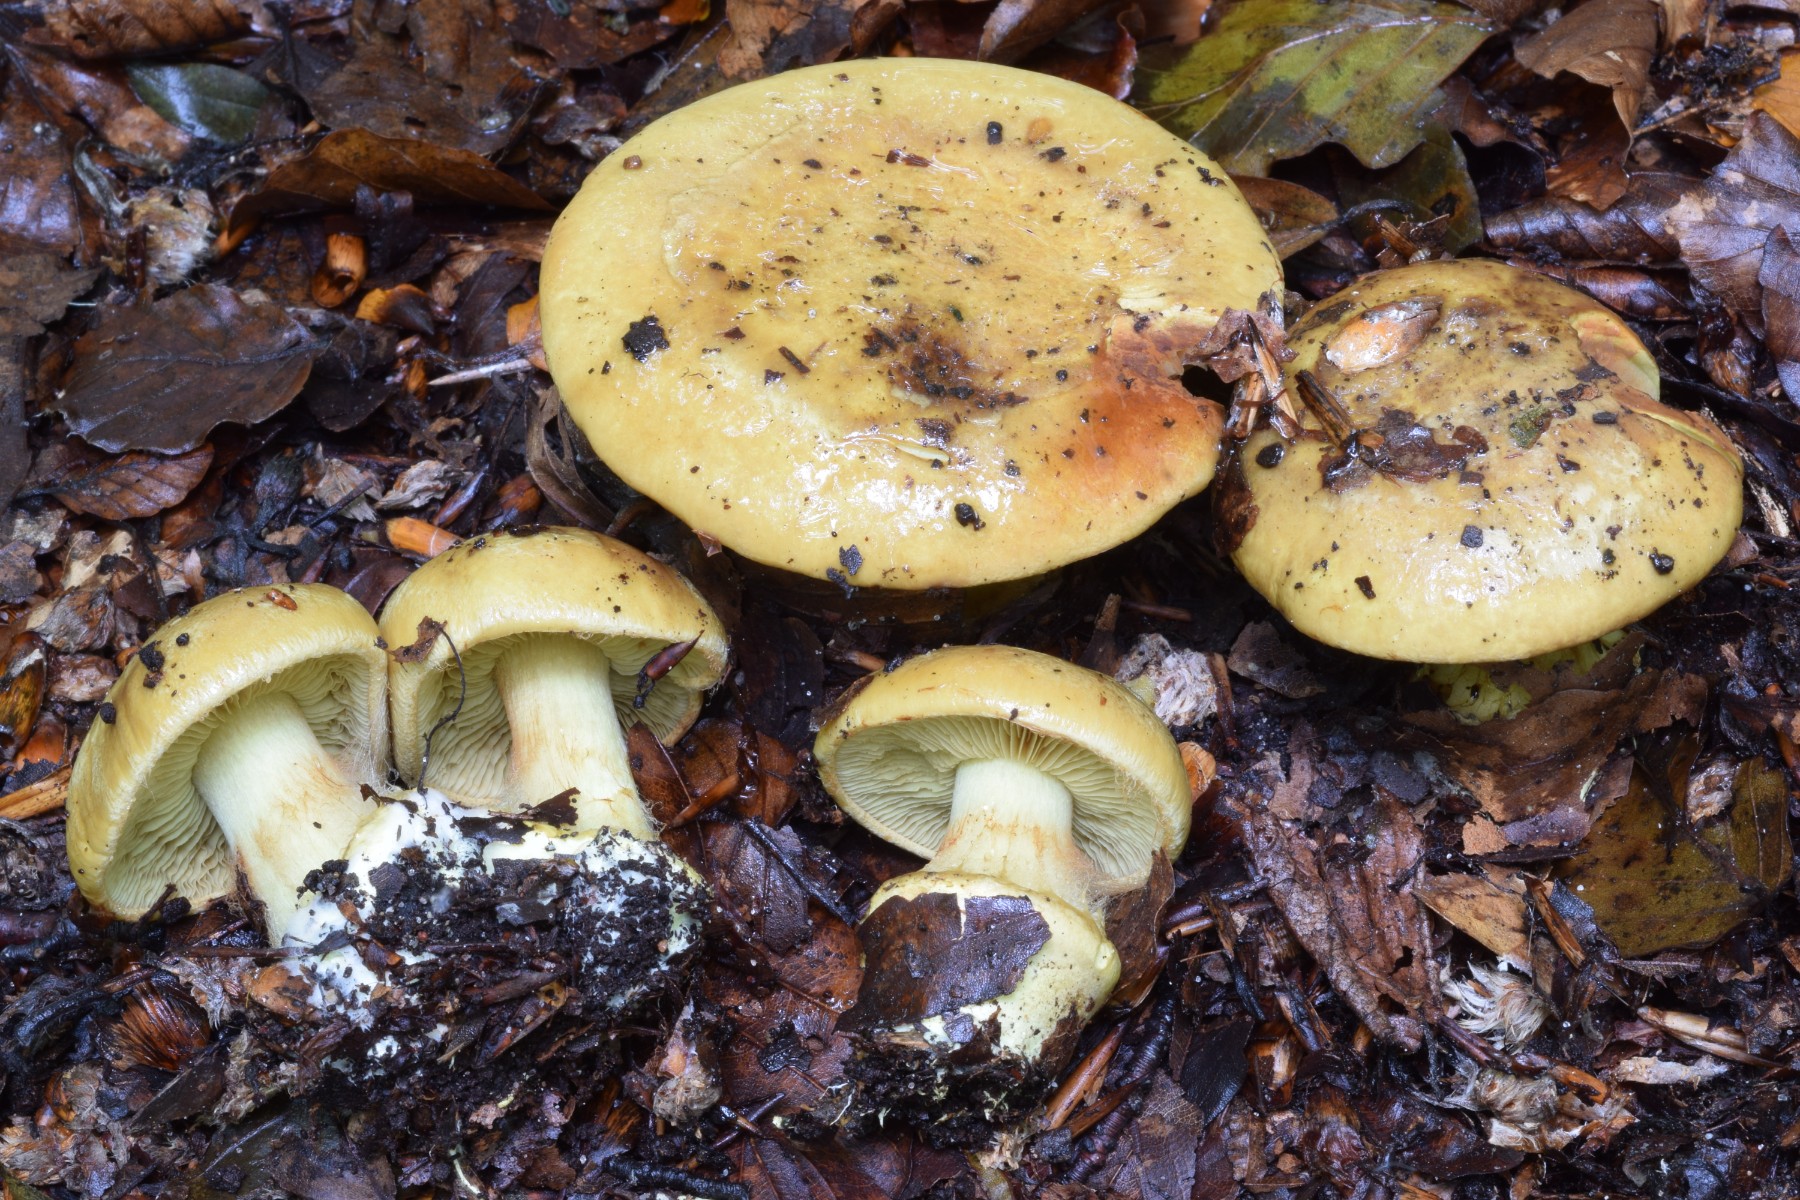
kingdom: Fungi
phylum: Basidiomycota
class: Agaricomycetes
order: Agaricales
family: Cortinariaceae
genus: Calonarius
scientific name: Calonarius citrinus
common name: citrongul slørhat
